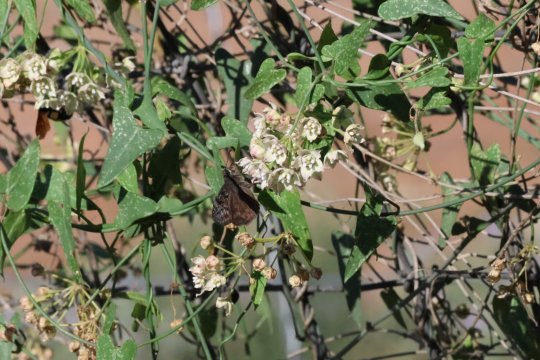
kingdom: Animalia
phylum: Arthropoda
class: Insecta
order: Lepidoptera
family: Hesperiidae
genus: Erynnis
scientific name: Erynnis funeralis
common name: Funereal Duskywing
